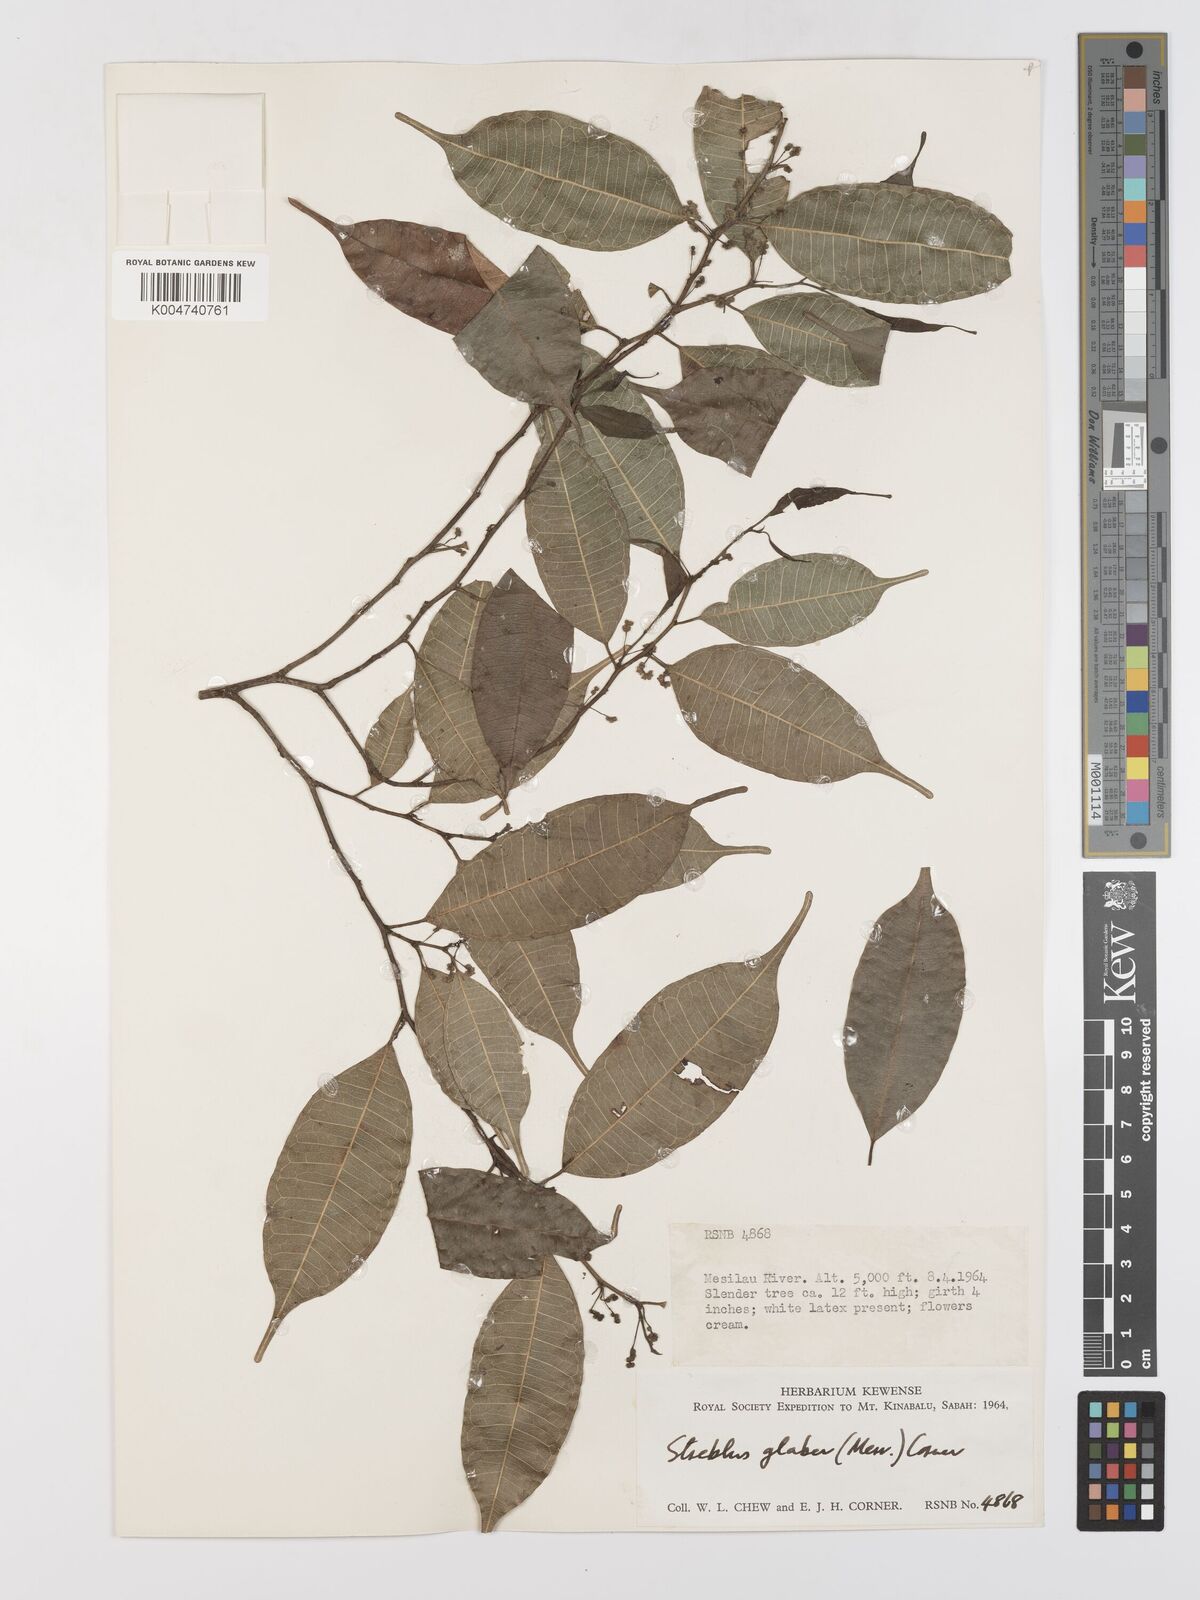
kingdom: Plantae
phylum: Tracheophyta
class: Magnoliopsida
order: Rosales
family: Moraceae
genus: Paratrophis
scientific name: Paratrophis glabra
